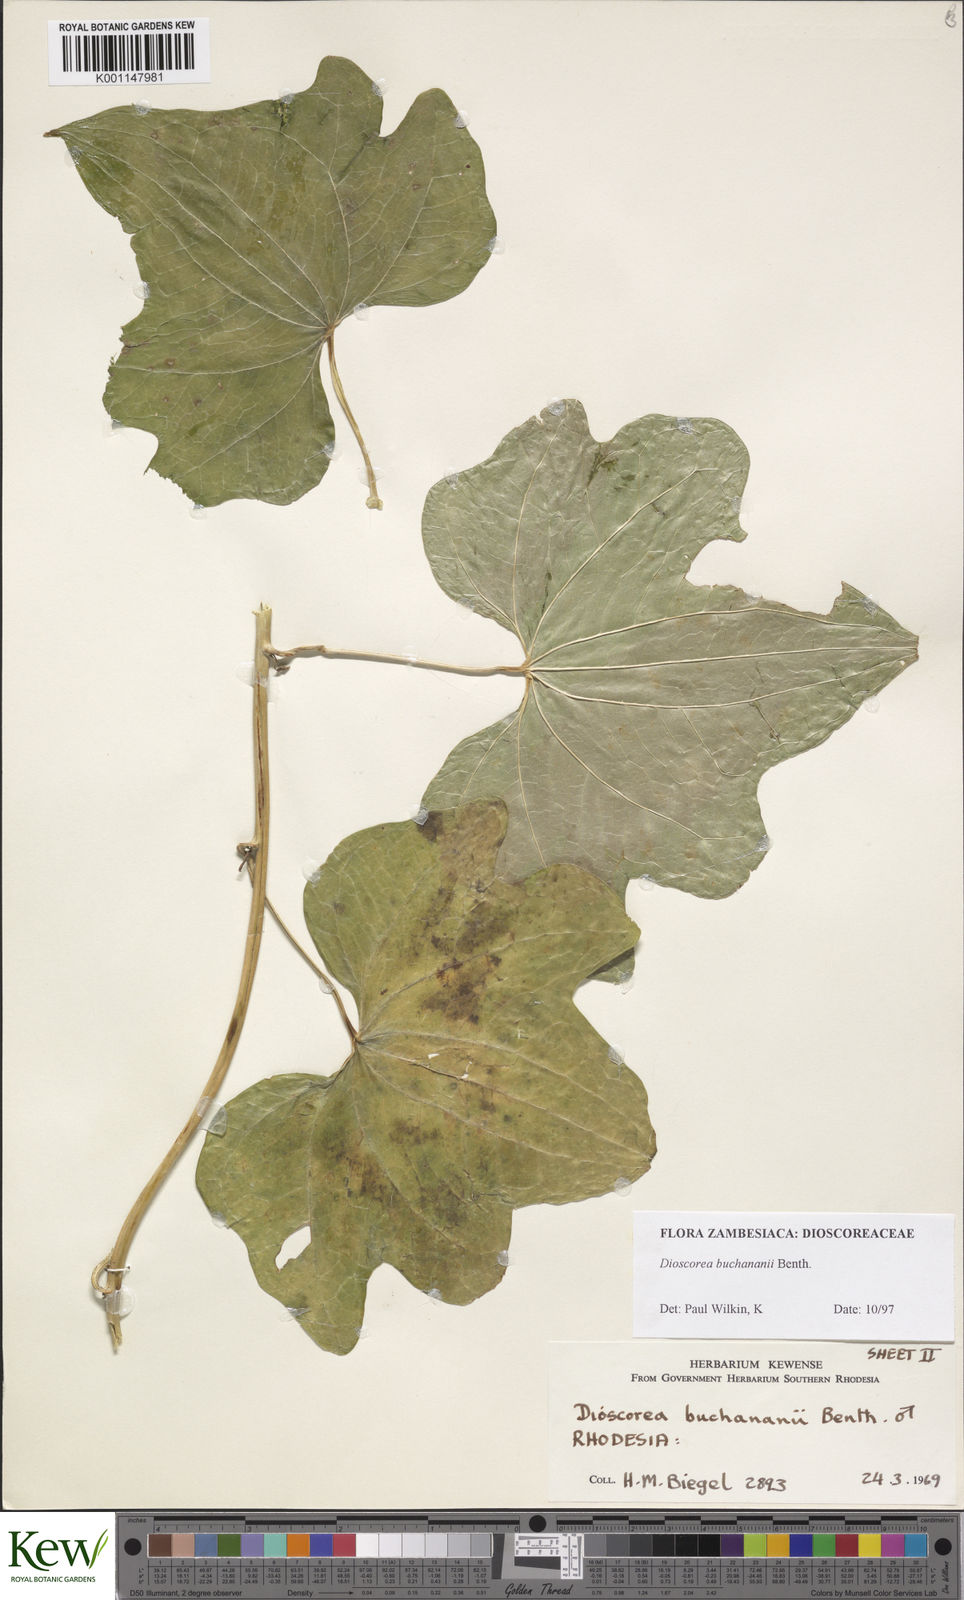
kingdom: Plantae
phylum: Tracheophyta
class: Liliopsida
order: Dioscoreales
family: Dioscoreaceae
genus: Dioscorea
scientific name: Dioscorea buchananii
